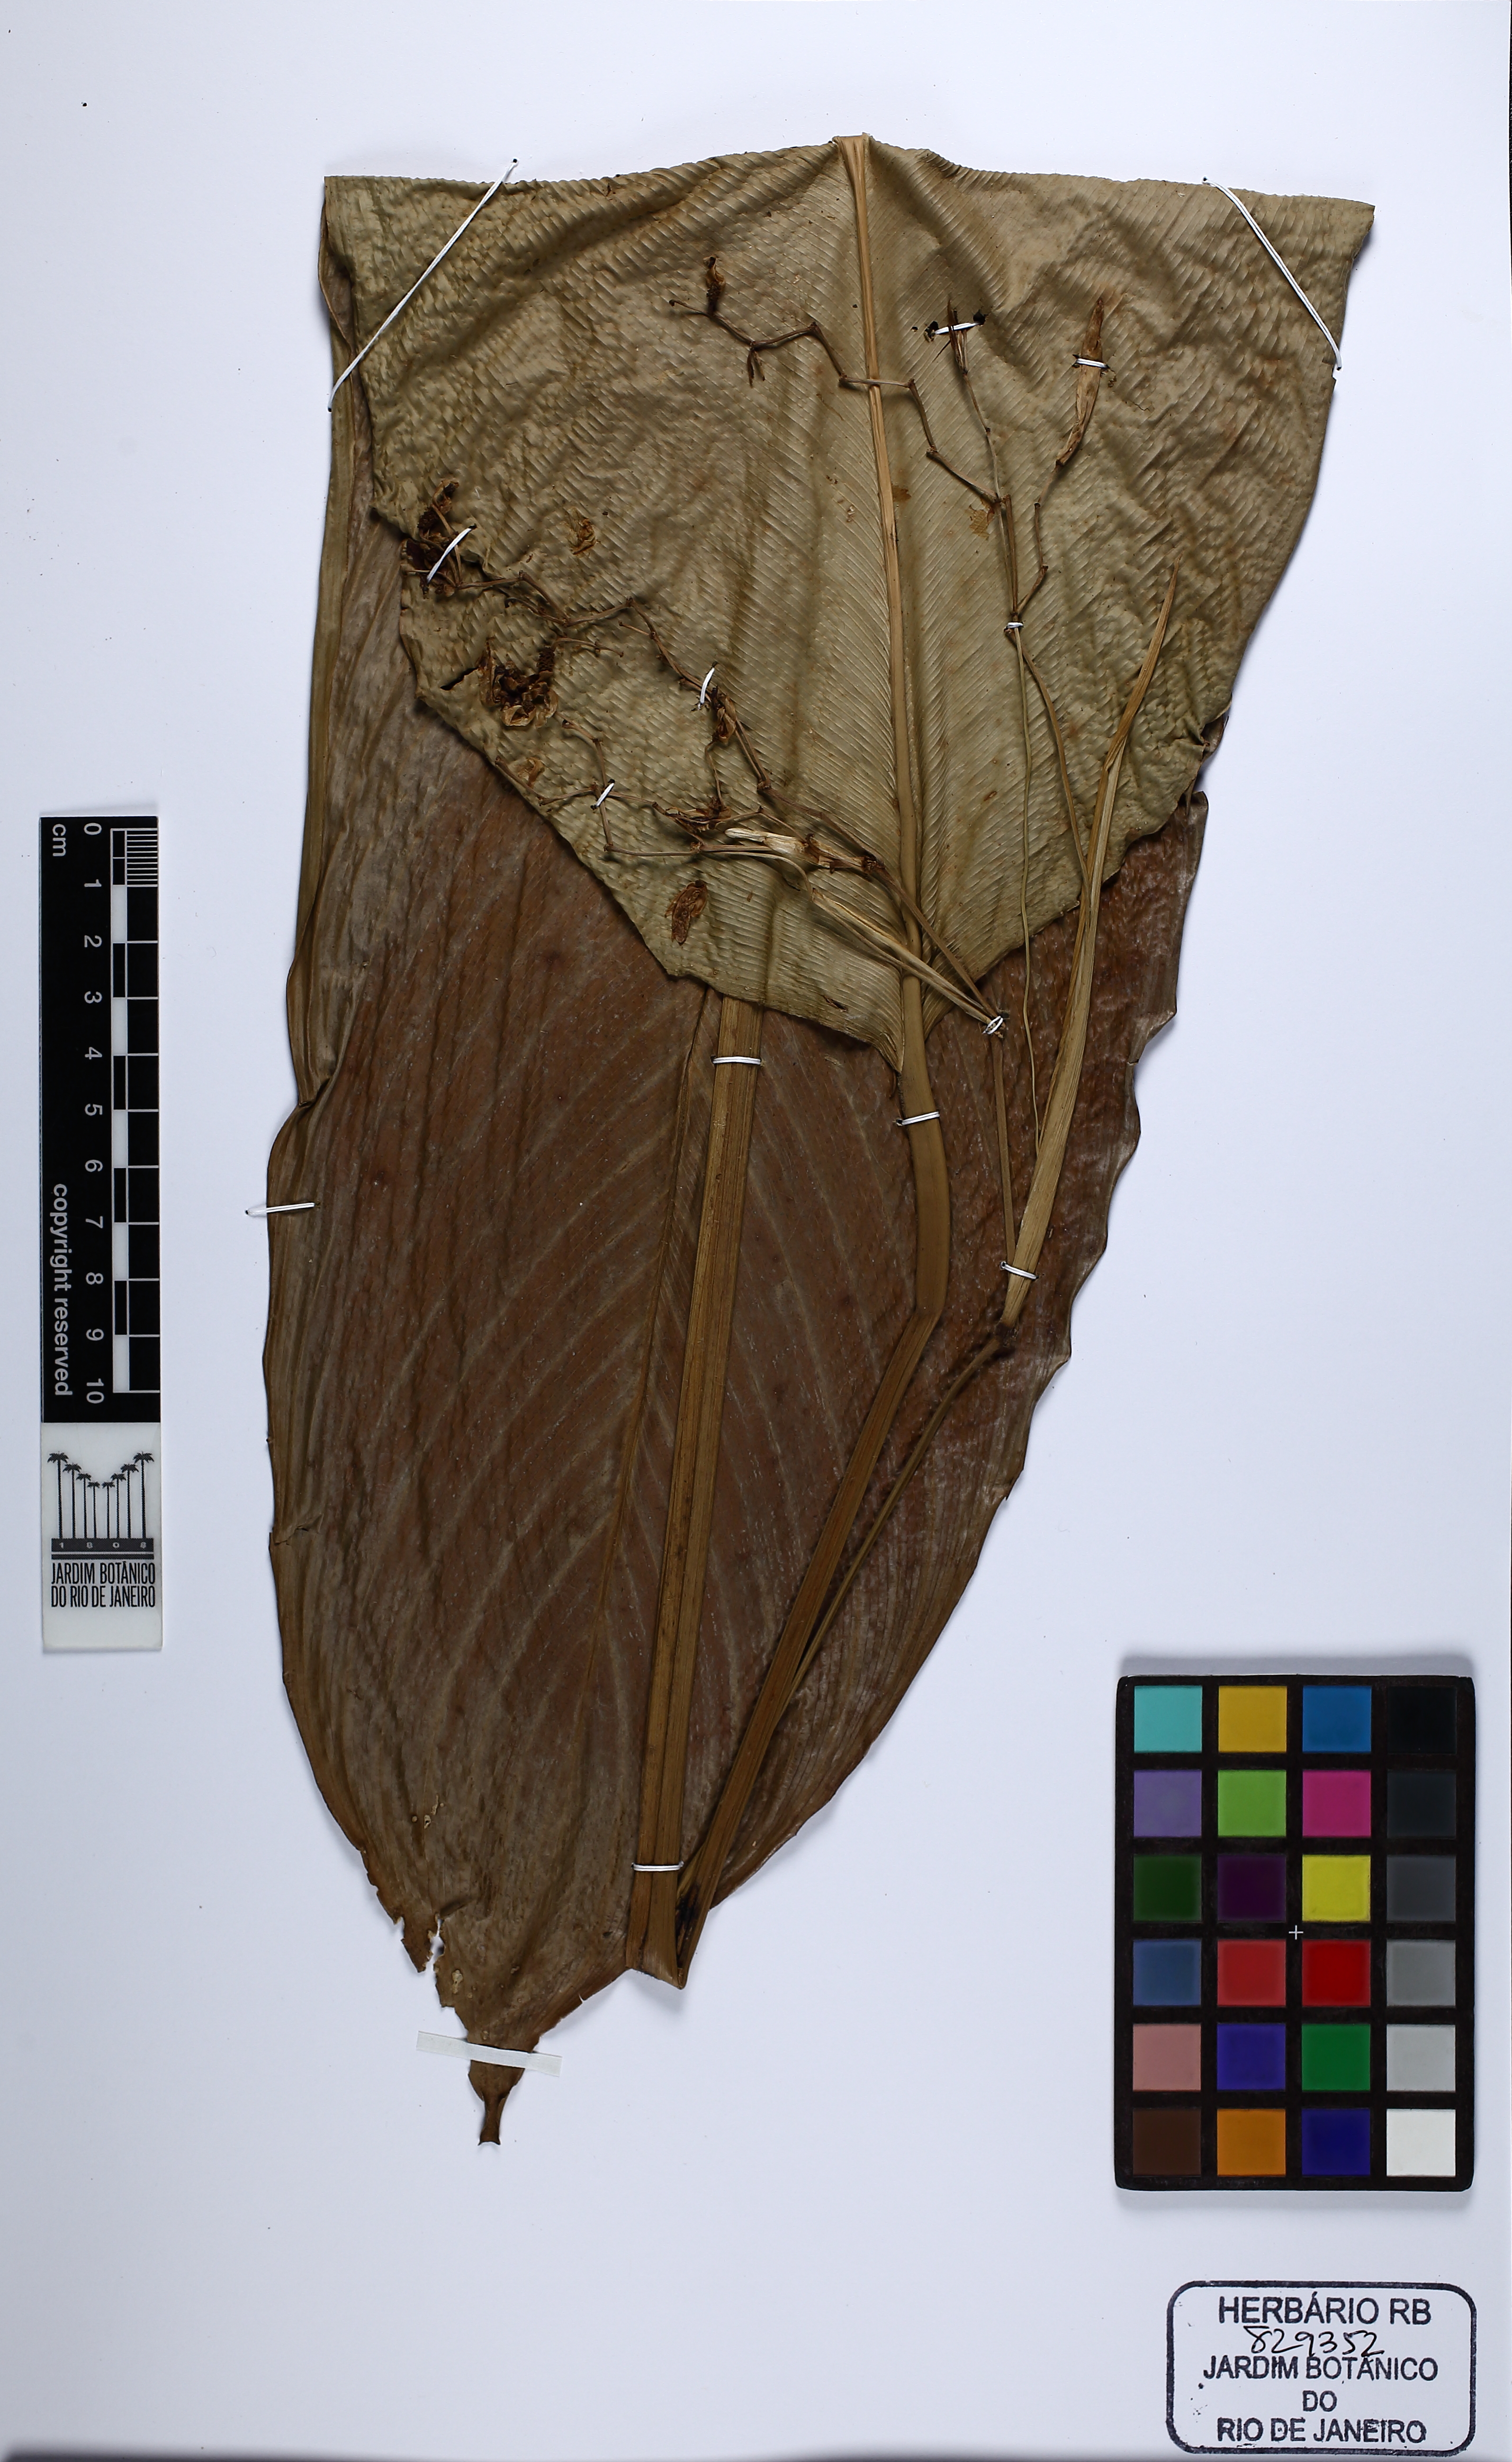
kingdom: Plantae
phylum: Tracheophyta
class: Liliopsida
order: Zingiberales
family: Marantaceae
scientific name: Marantaceae
